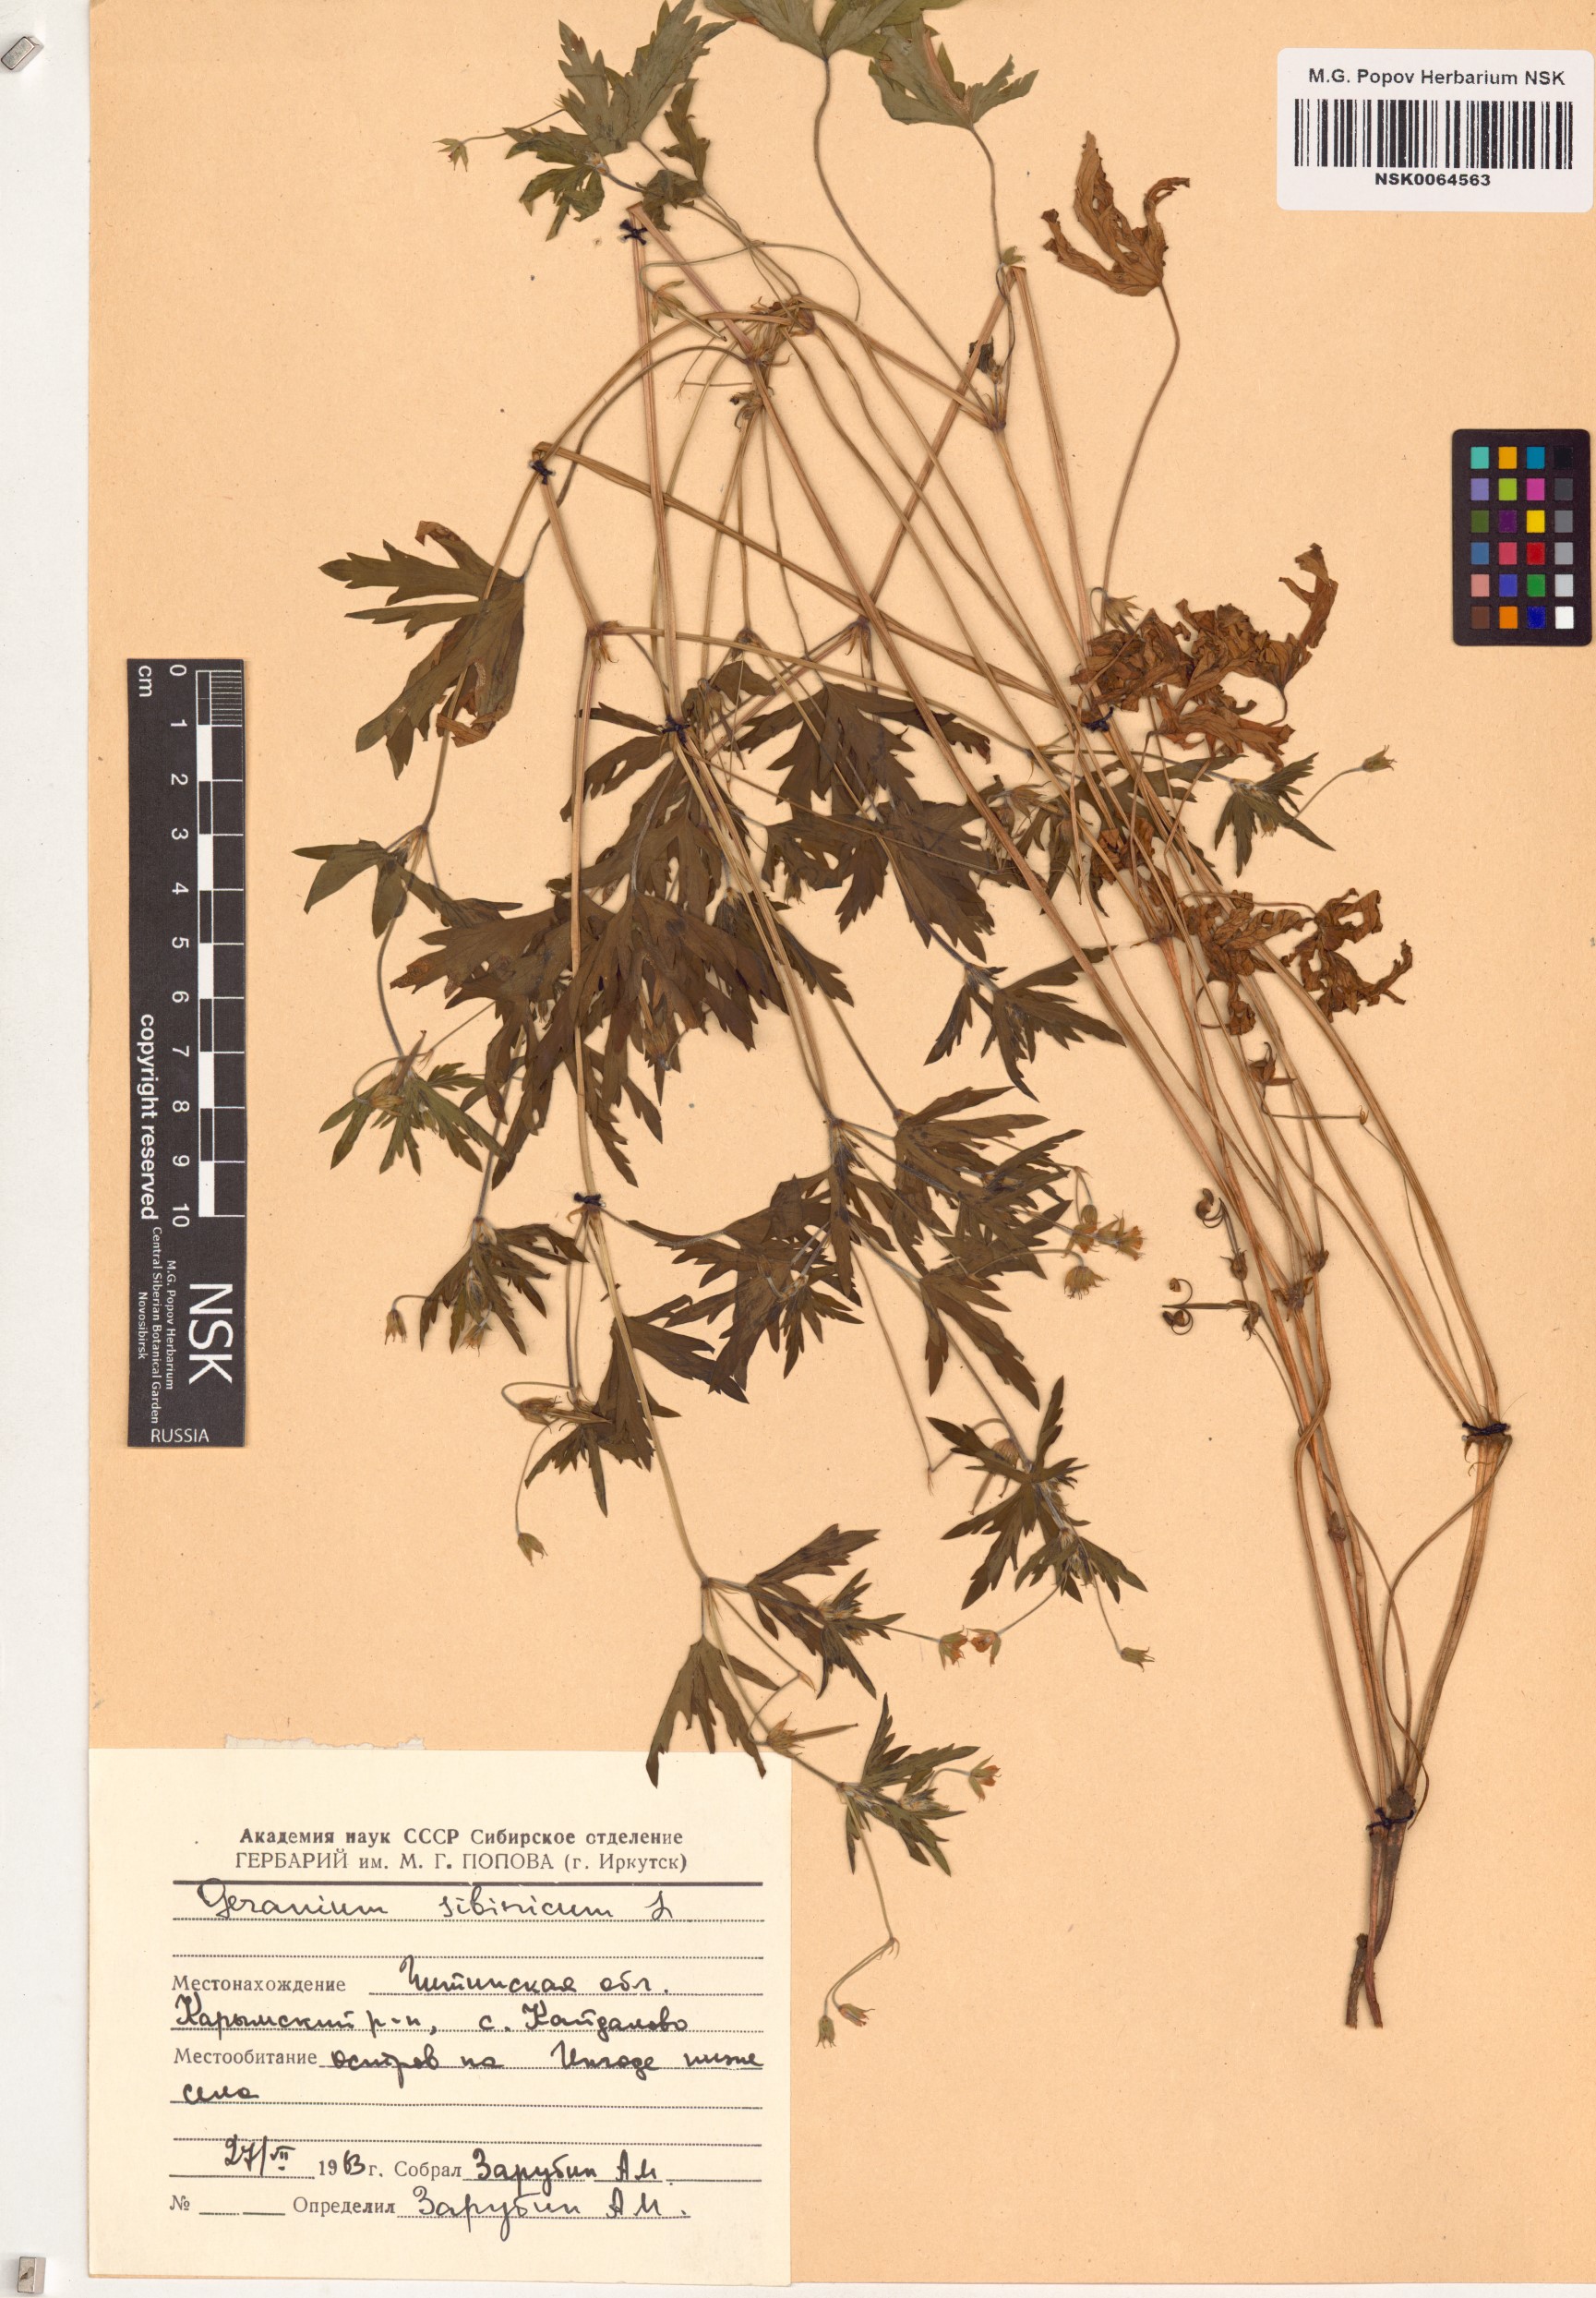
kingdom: Plantae
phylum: Tracheophyta
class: Magnoliopsida
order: Geraniales
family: Geraniaceae
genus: Geranium
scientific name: Geranium sibiricum
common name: Siberian crane's-bill
